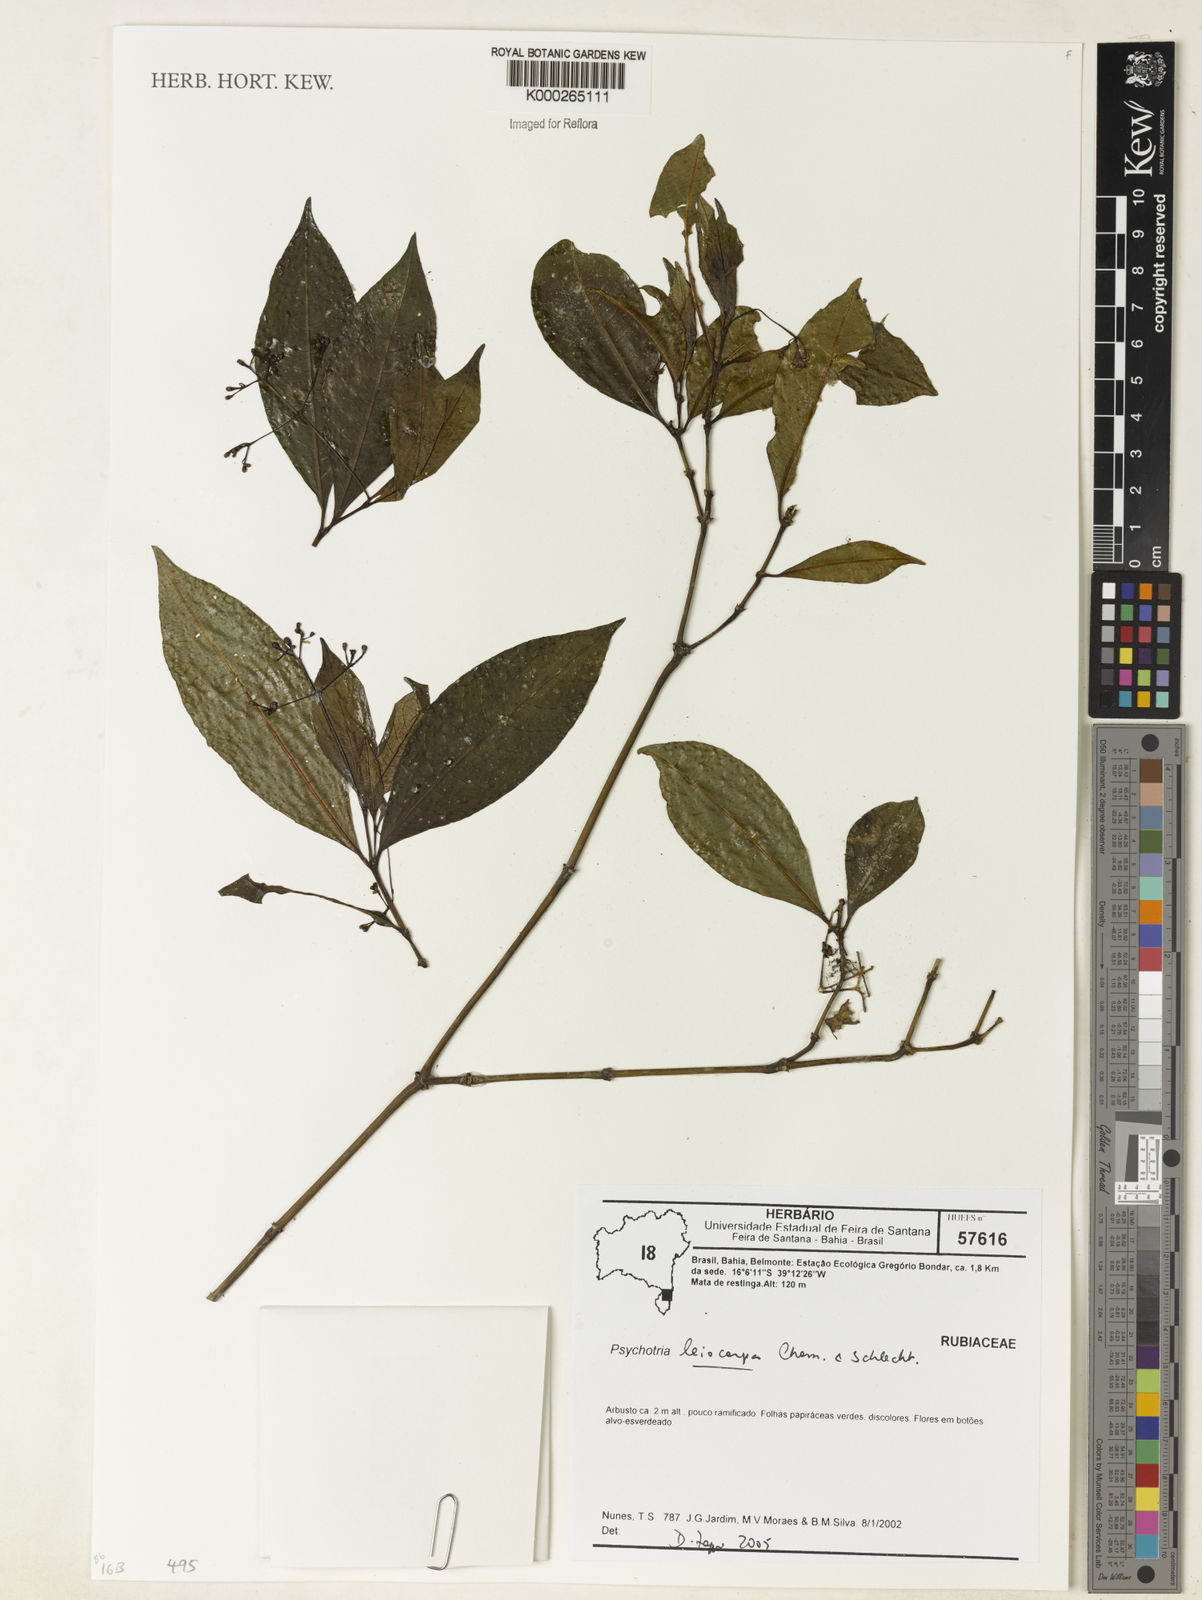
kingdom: Plantae
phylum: Tracheophyta
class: Magnoliopsida
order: Gentianales
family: Rubiaceae
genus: Psychotria
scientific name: Psychotria leiocarpa
